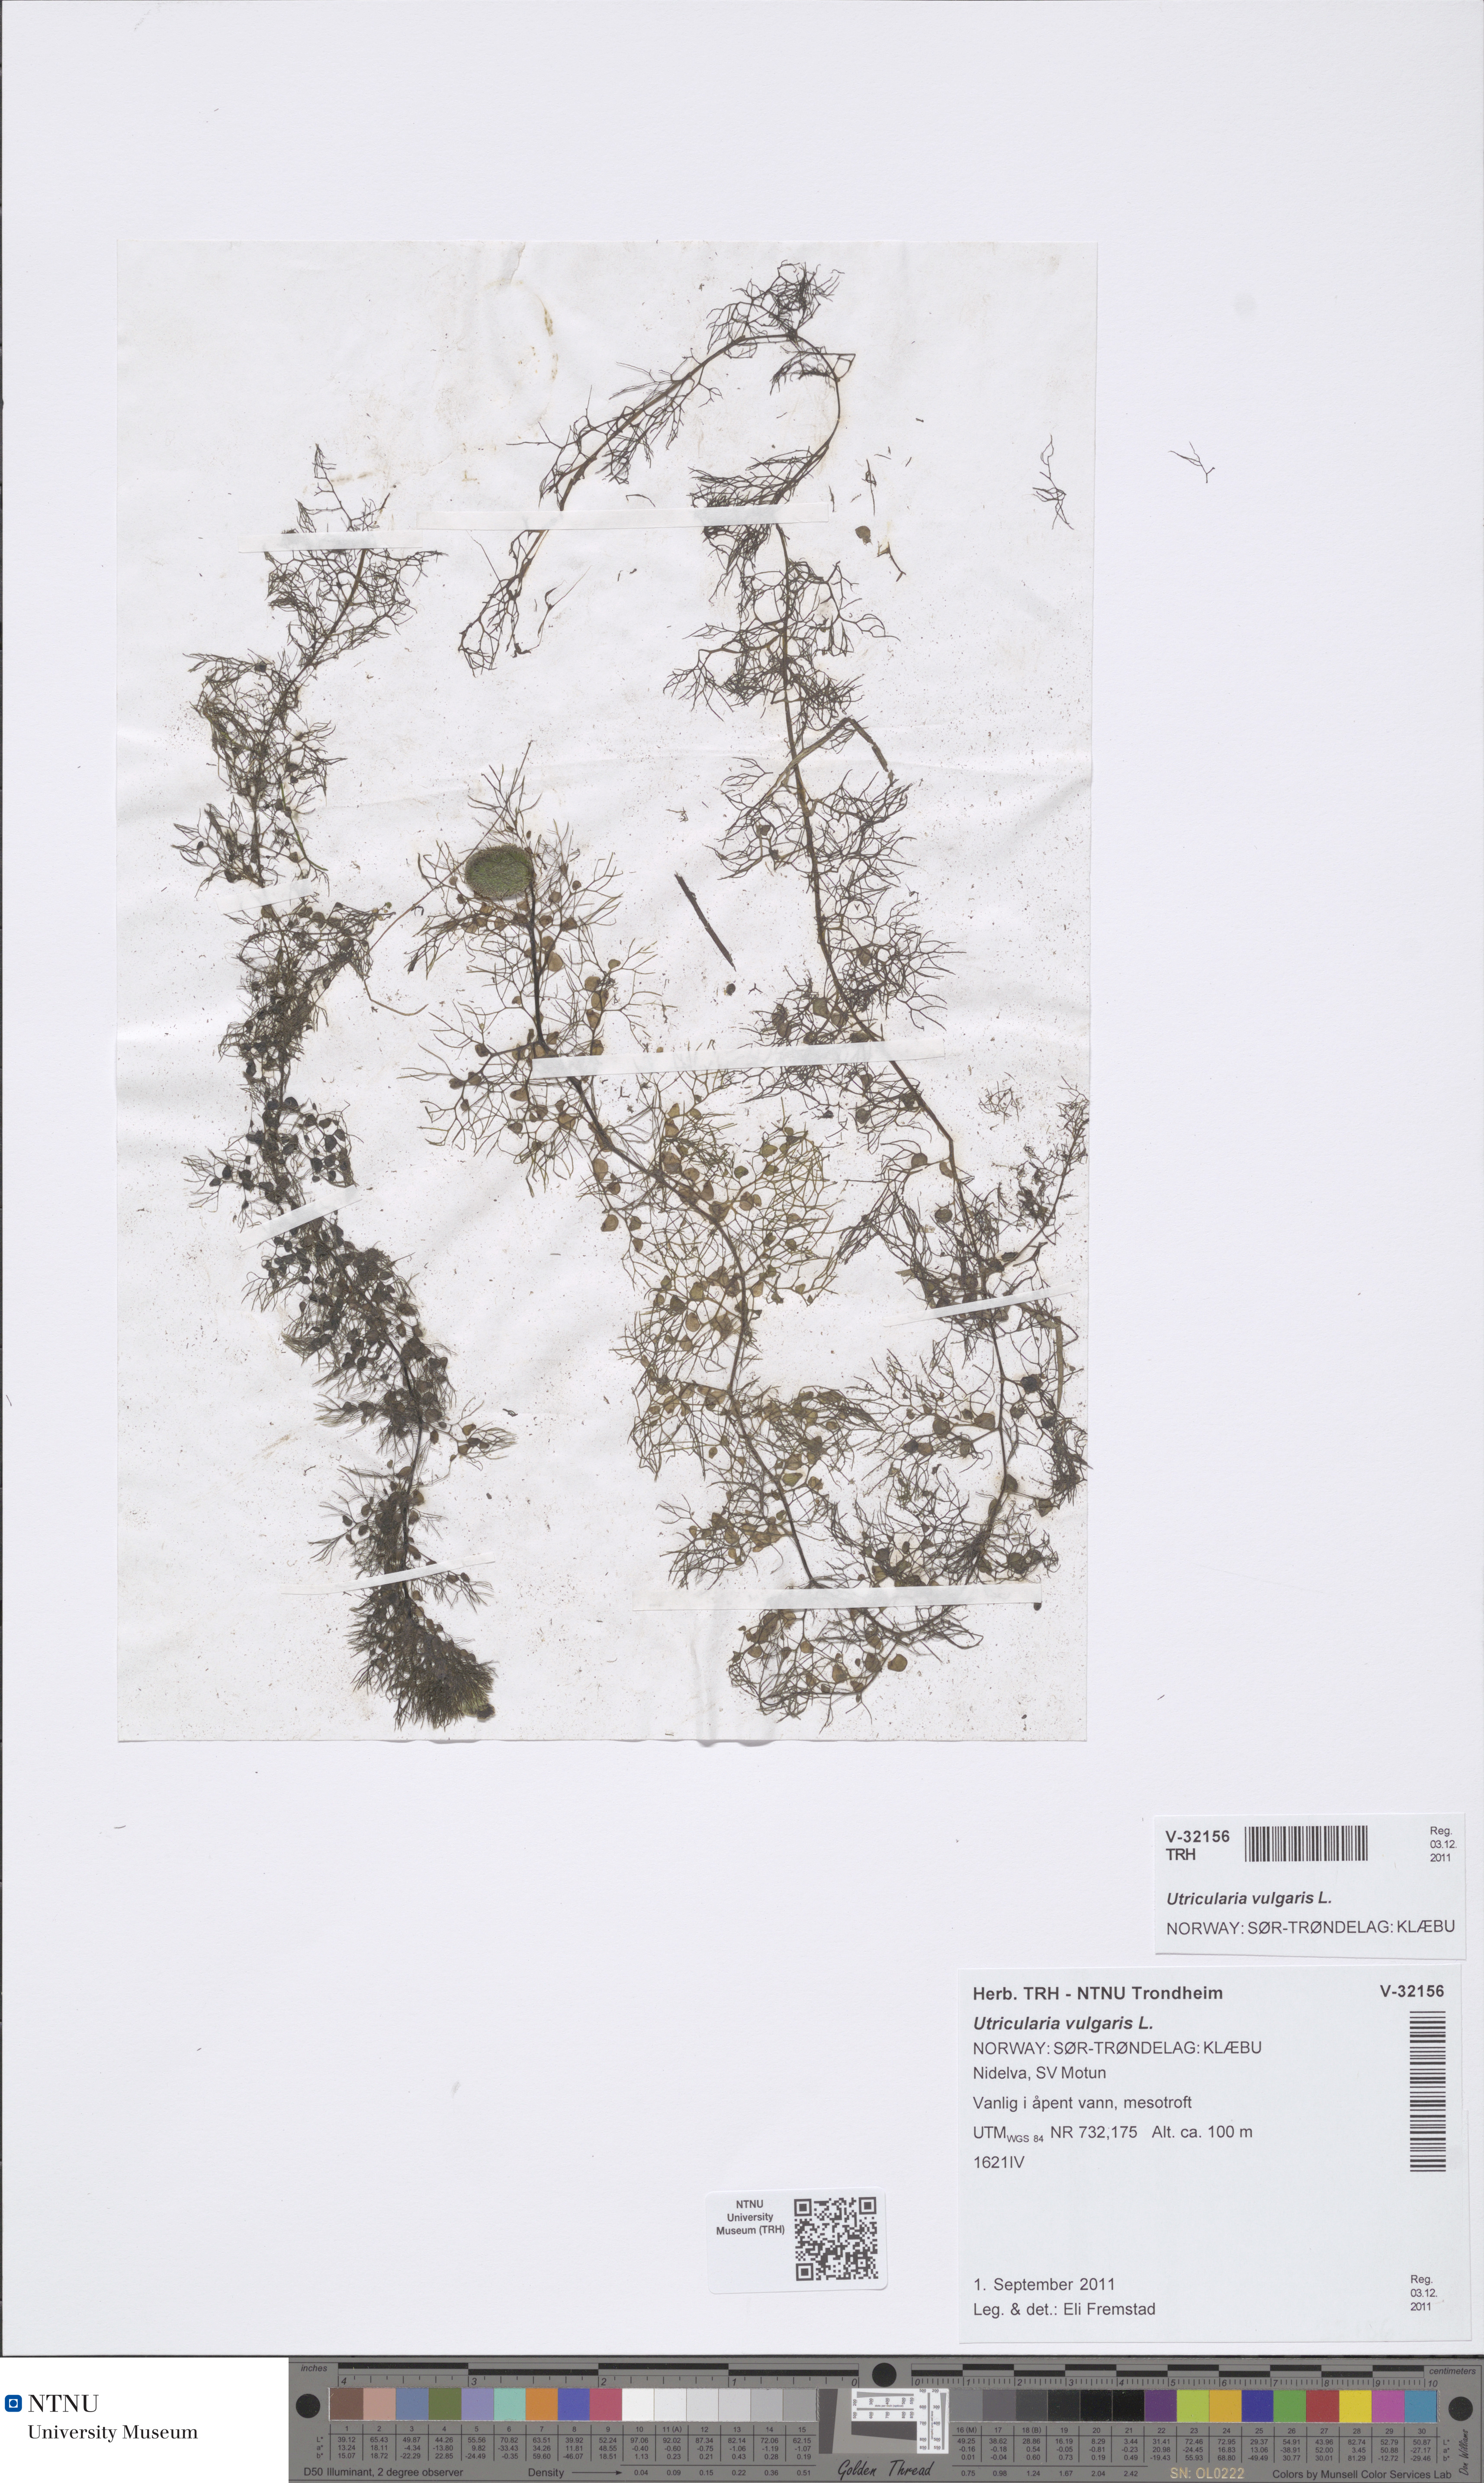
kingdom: Plantae
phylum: Tracheophyta
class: Magnoliopsida
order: Lamiales
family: Lentibulariaceae
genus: Utricularia
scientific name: Utricularia vulgaris
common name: Greater bladderwort
